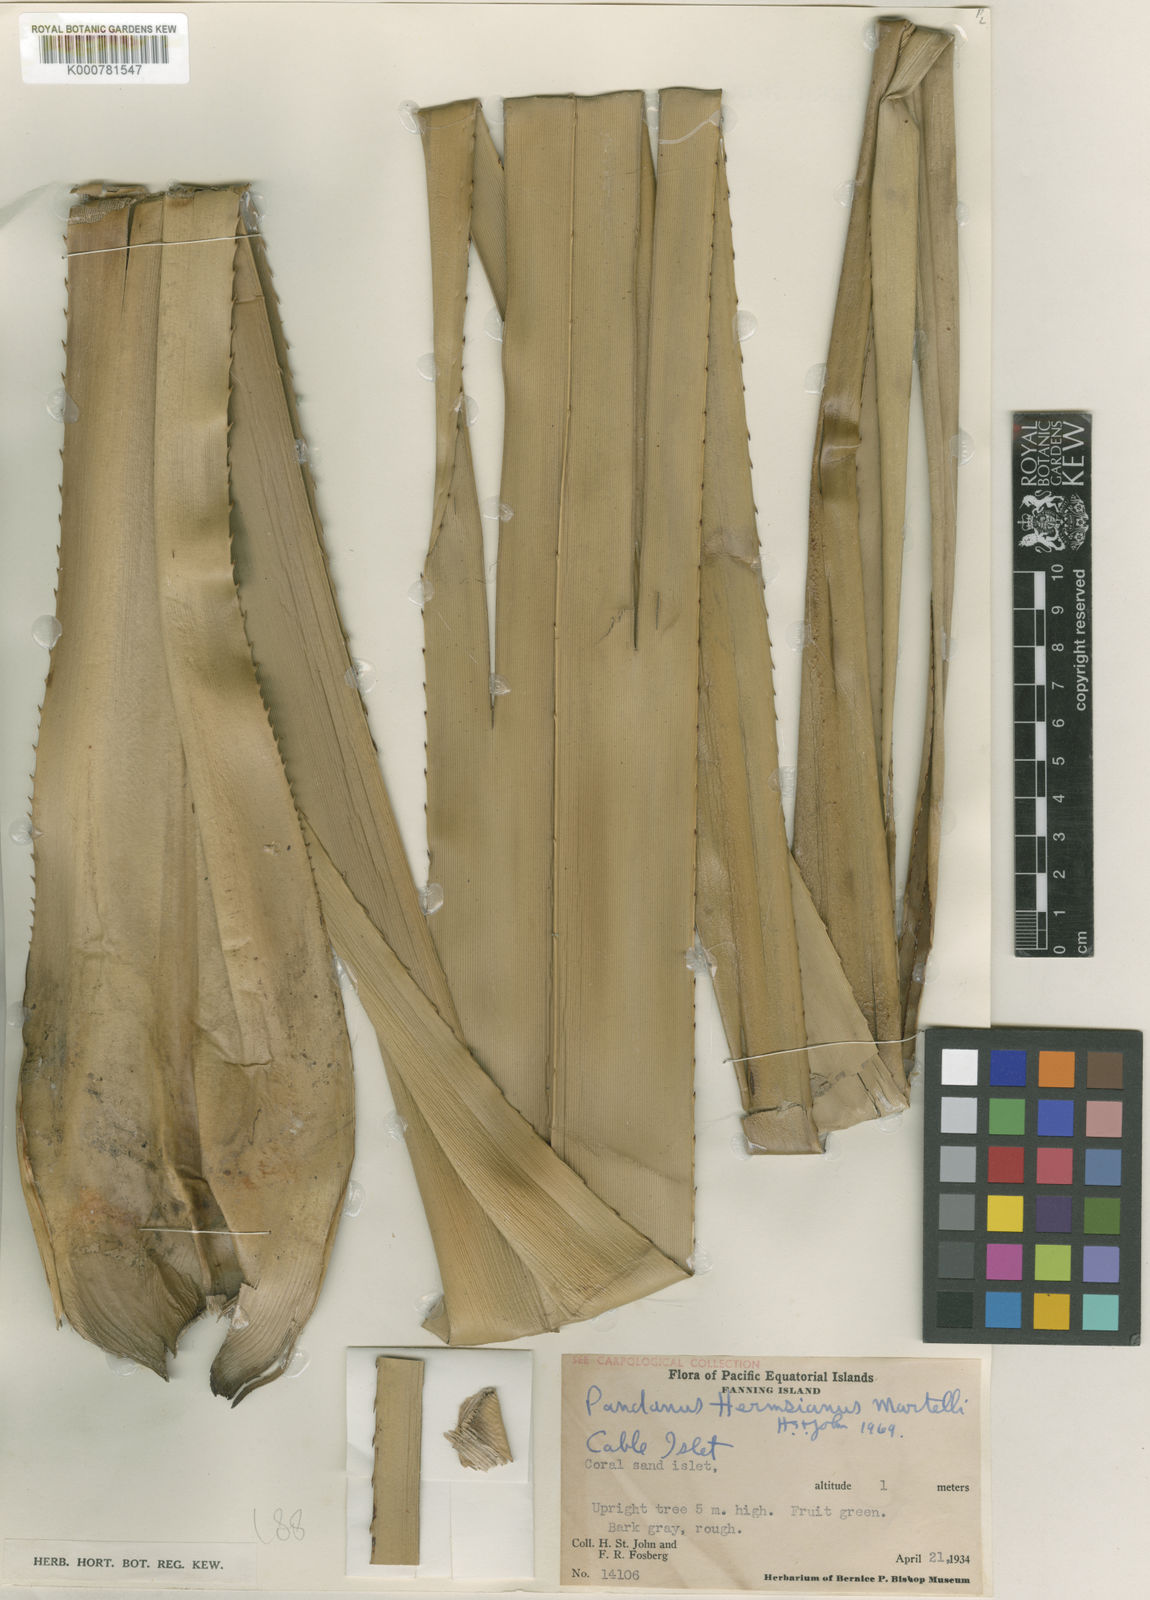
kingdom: Plantae
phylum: Tracheophyta
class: Liliopsida
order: Pandanales
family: Pandanaceae
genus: Pandanus
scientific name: Pandanus hermsianus
